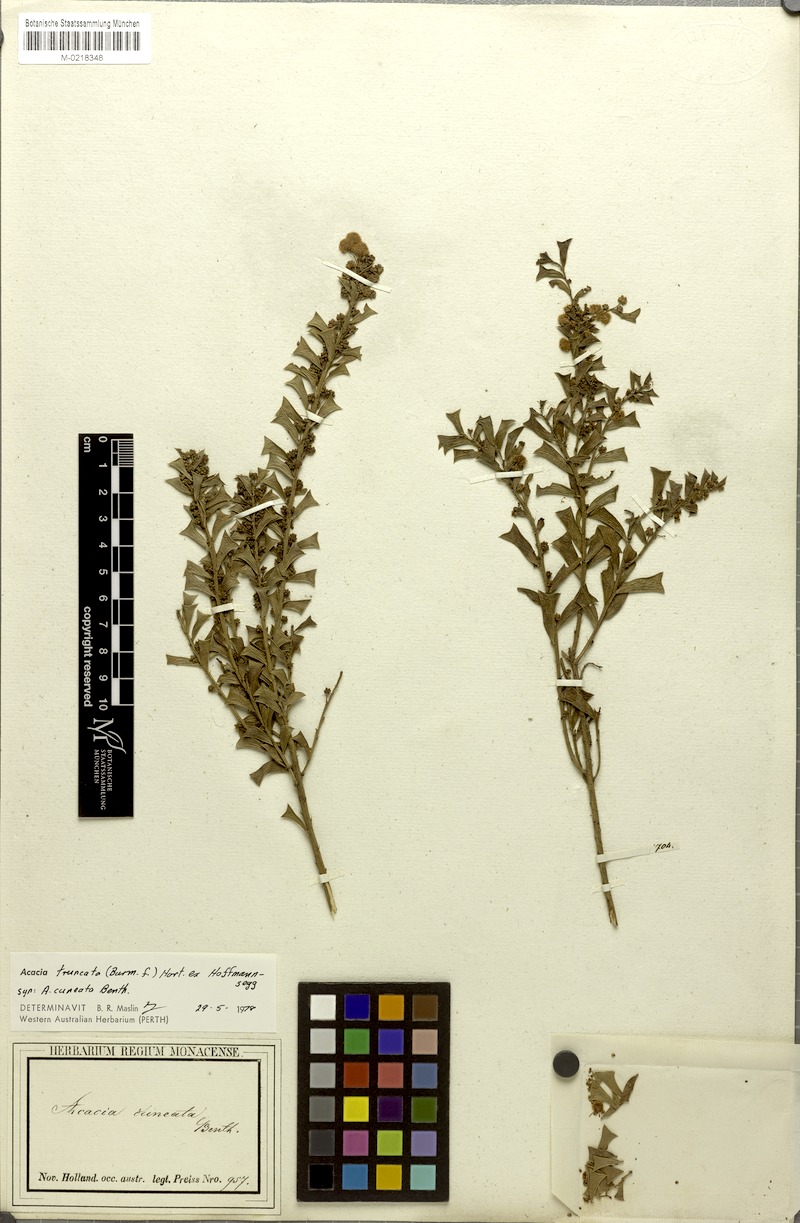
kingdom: Plantae
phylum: Tracheophyta
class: Magnoliopsida
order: Fabales
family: Fabaceae
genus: Acacia
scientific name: Acacia truncata
